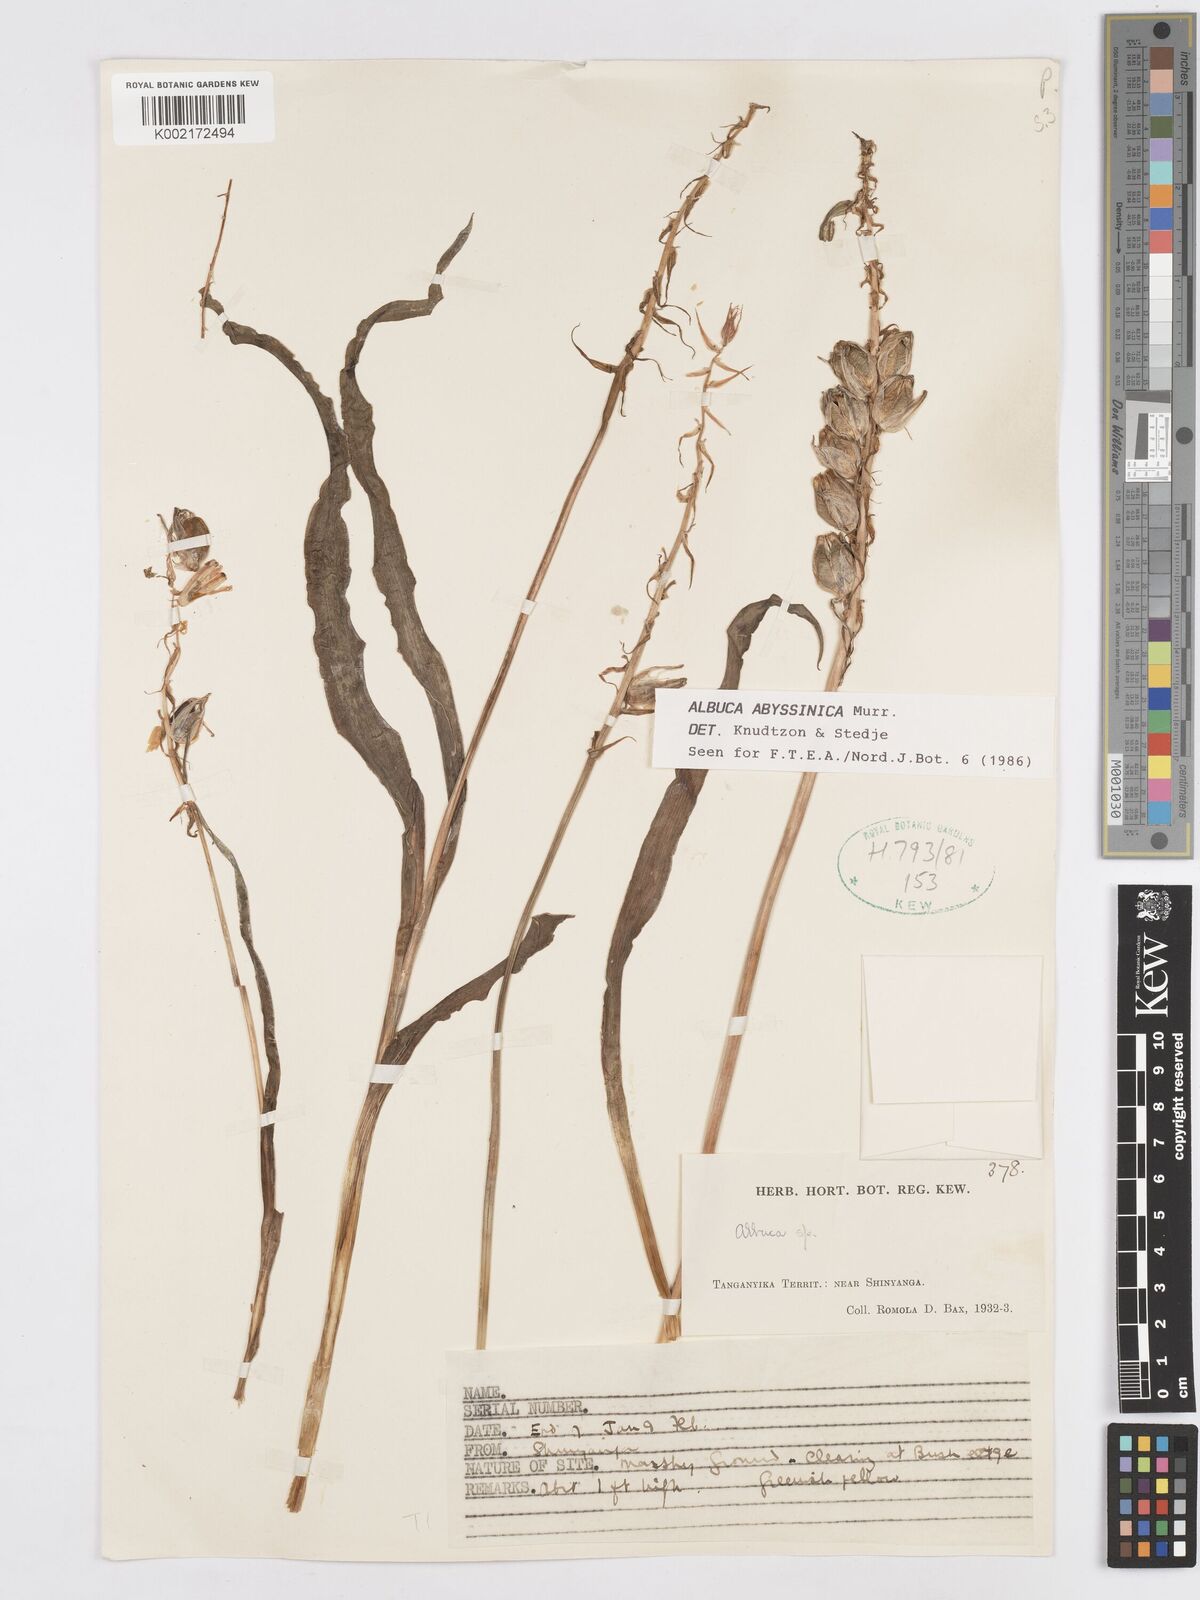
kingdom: Plantae
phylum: Tracheophyta
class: Liliopsida
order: Asparagales
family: Asparagaceae
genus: Albuca
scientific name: Albuca abyssinica
